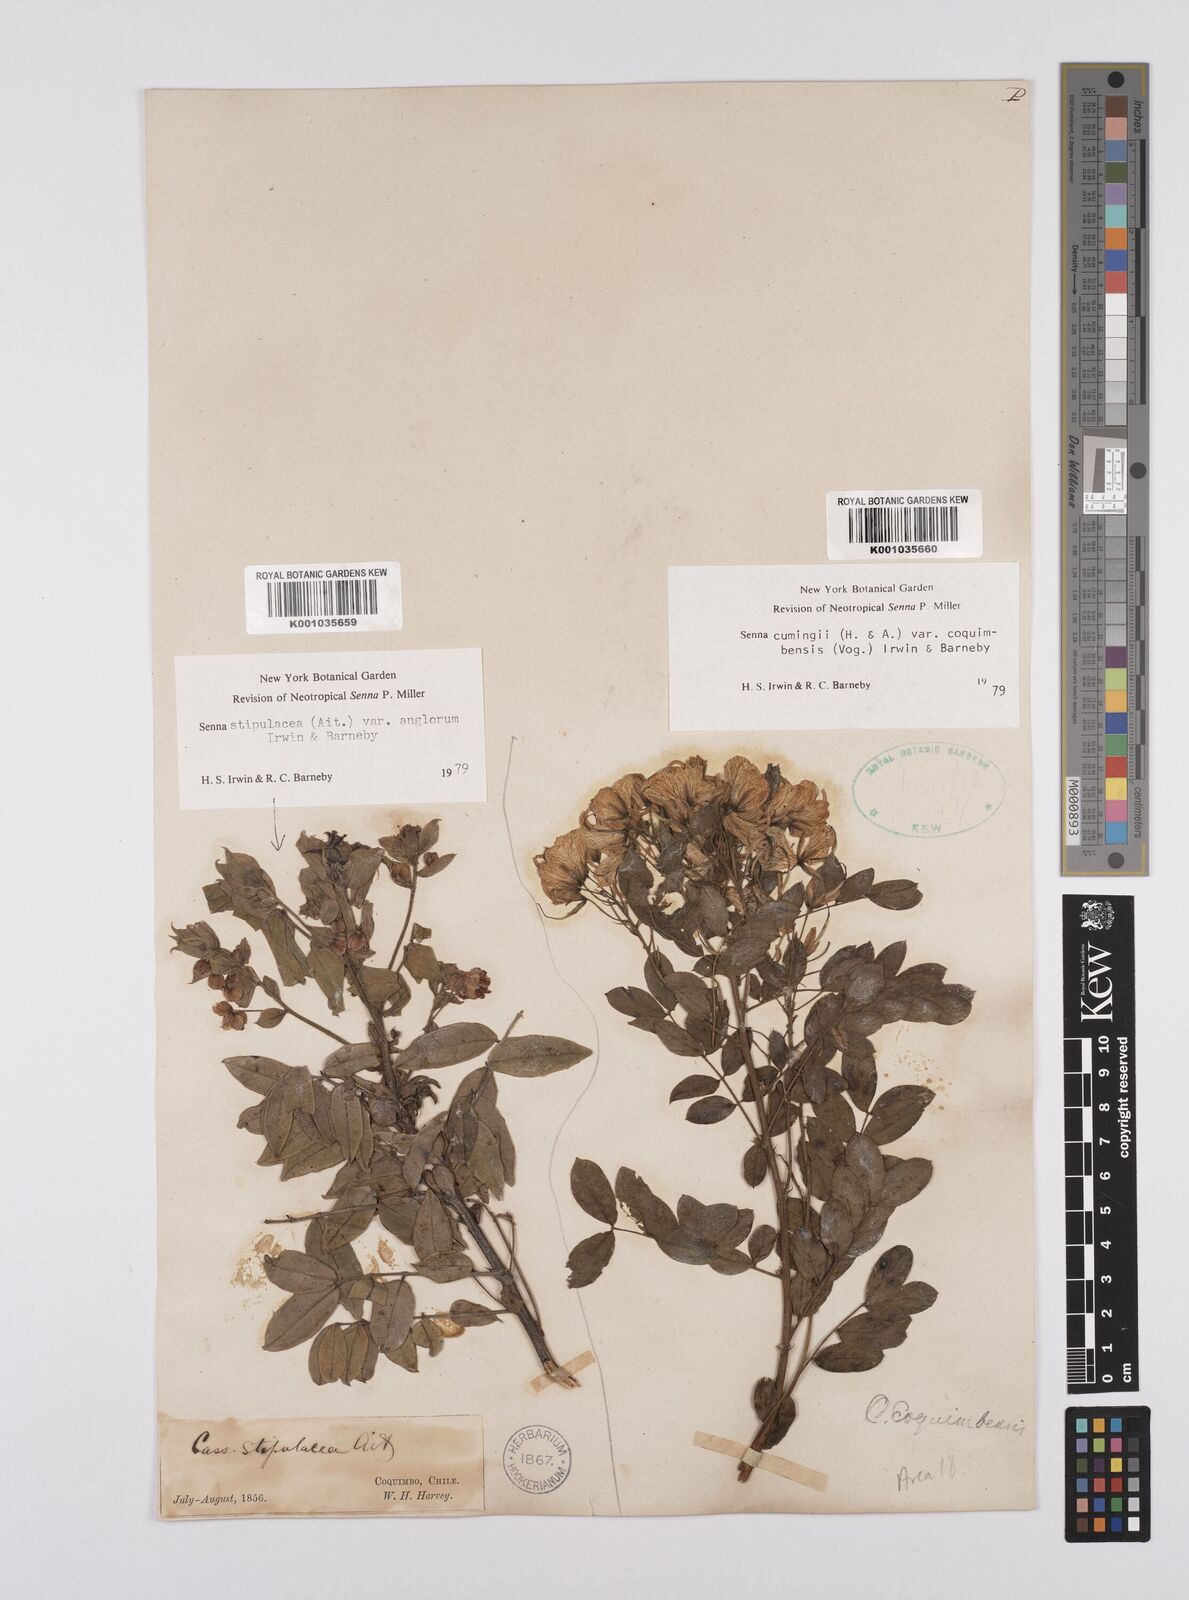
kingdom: Plantae
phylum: Tracheophyta
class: Magnoliopsida
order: Fabales
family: Fabaceae
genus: Senna
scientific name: Senna cumingii
